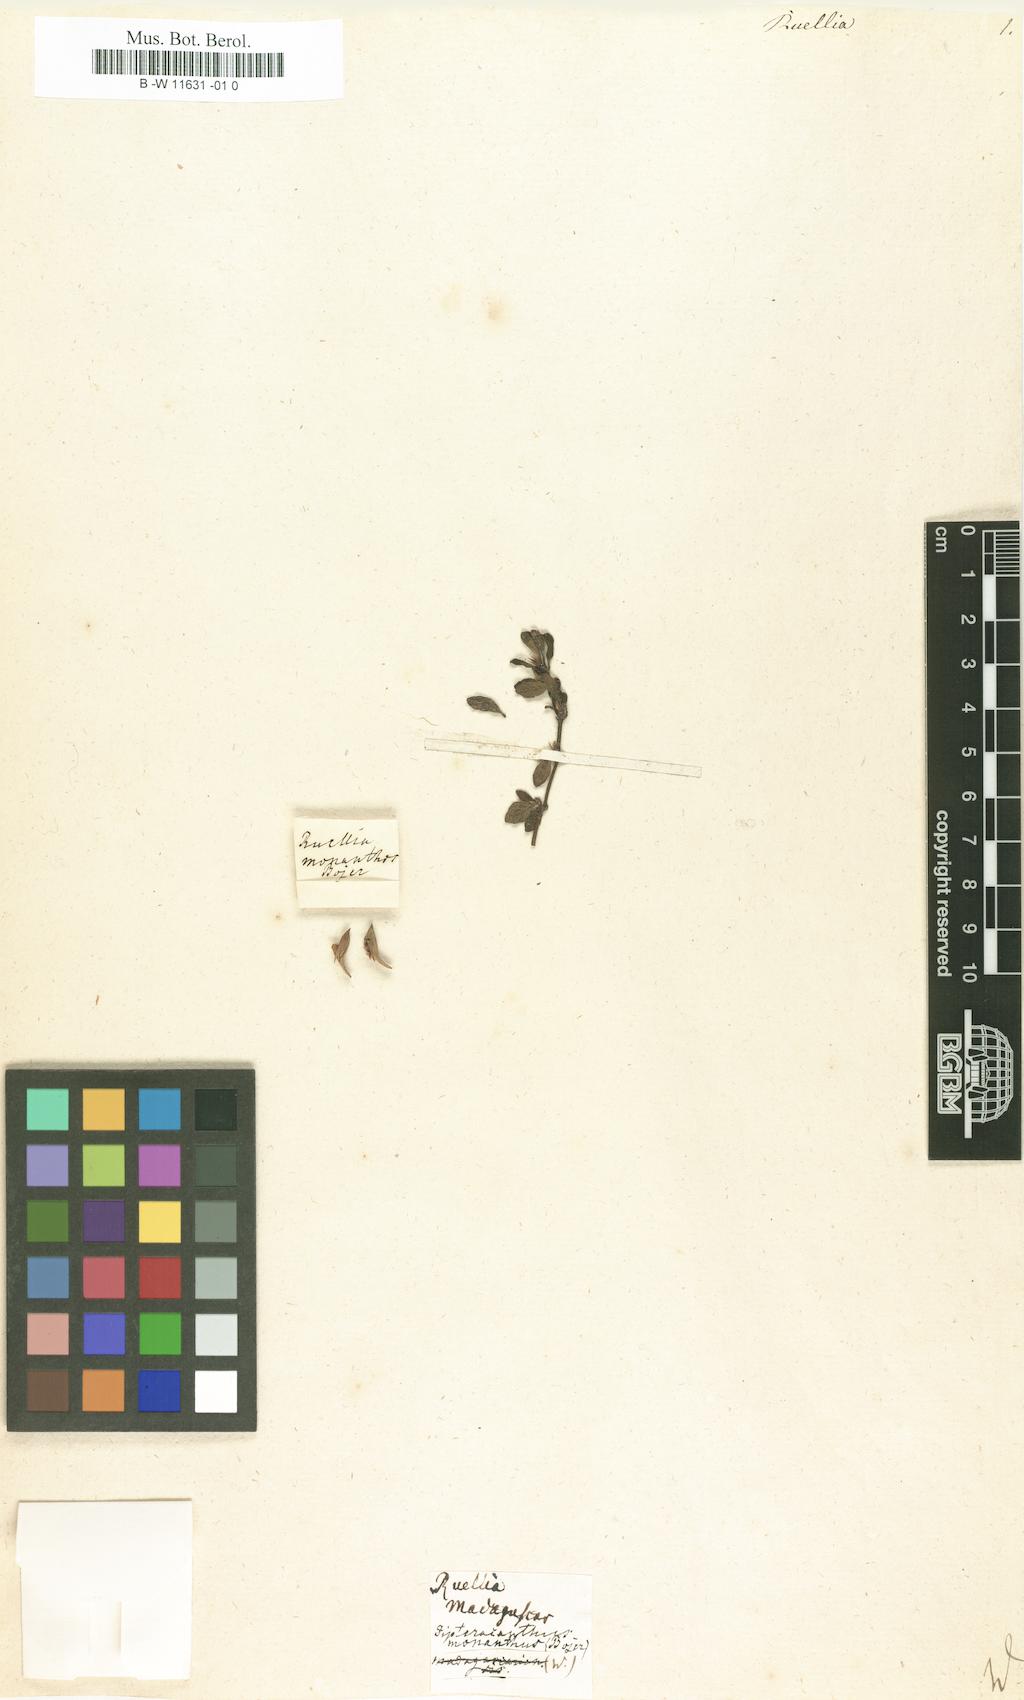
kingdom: Plantae
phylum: Tracheophyta
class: Magnoliopsida
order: Lamiales
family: Acanthaceae
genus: Ruellia
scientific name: Ruellia
